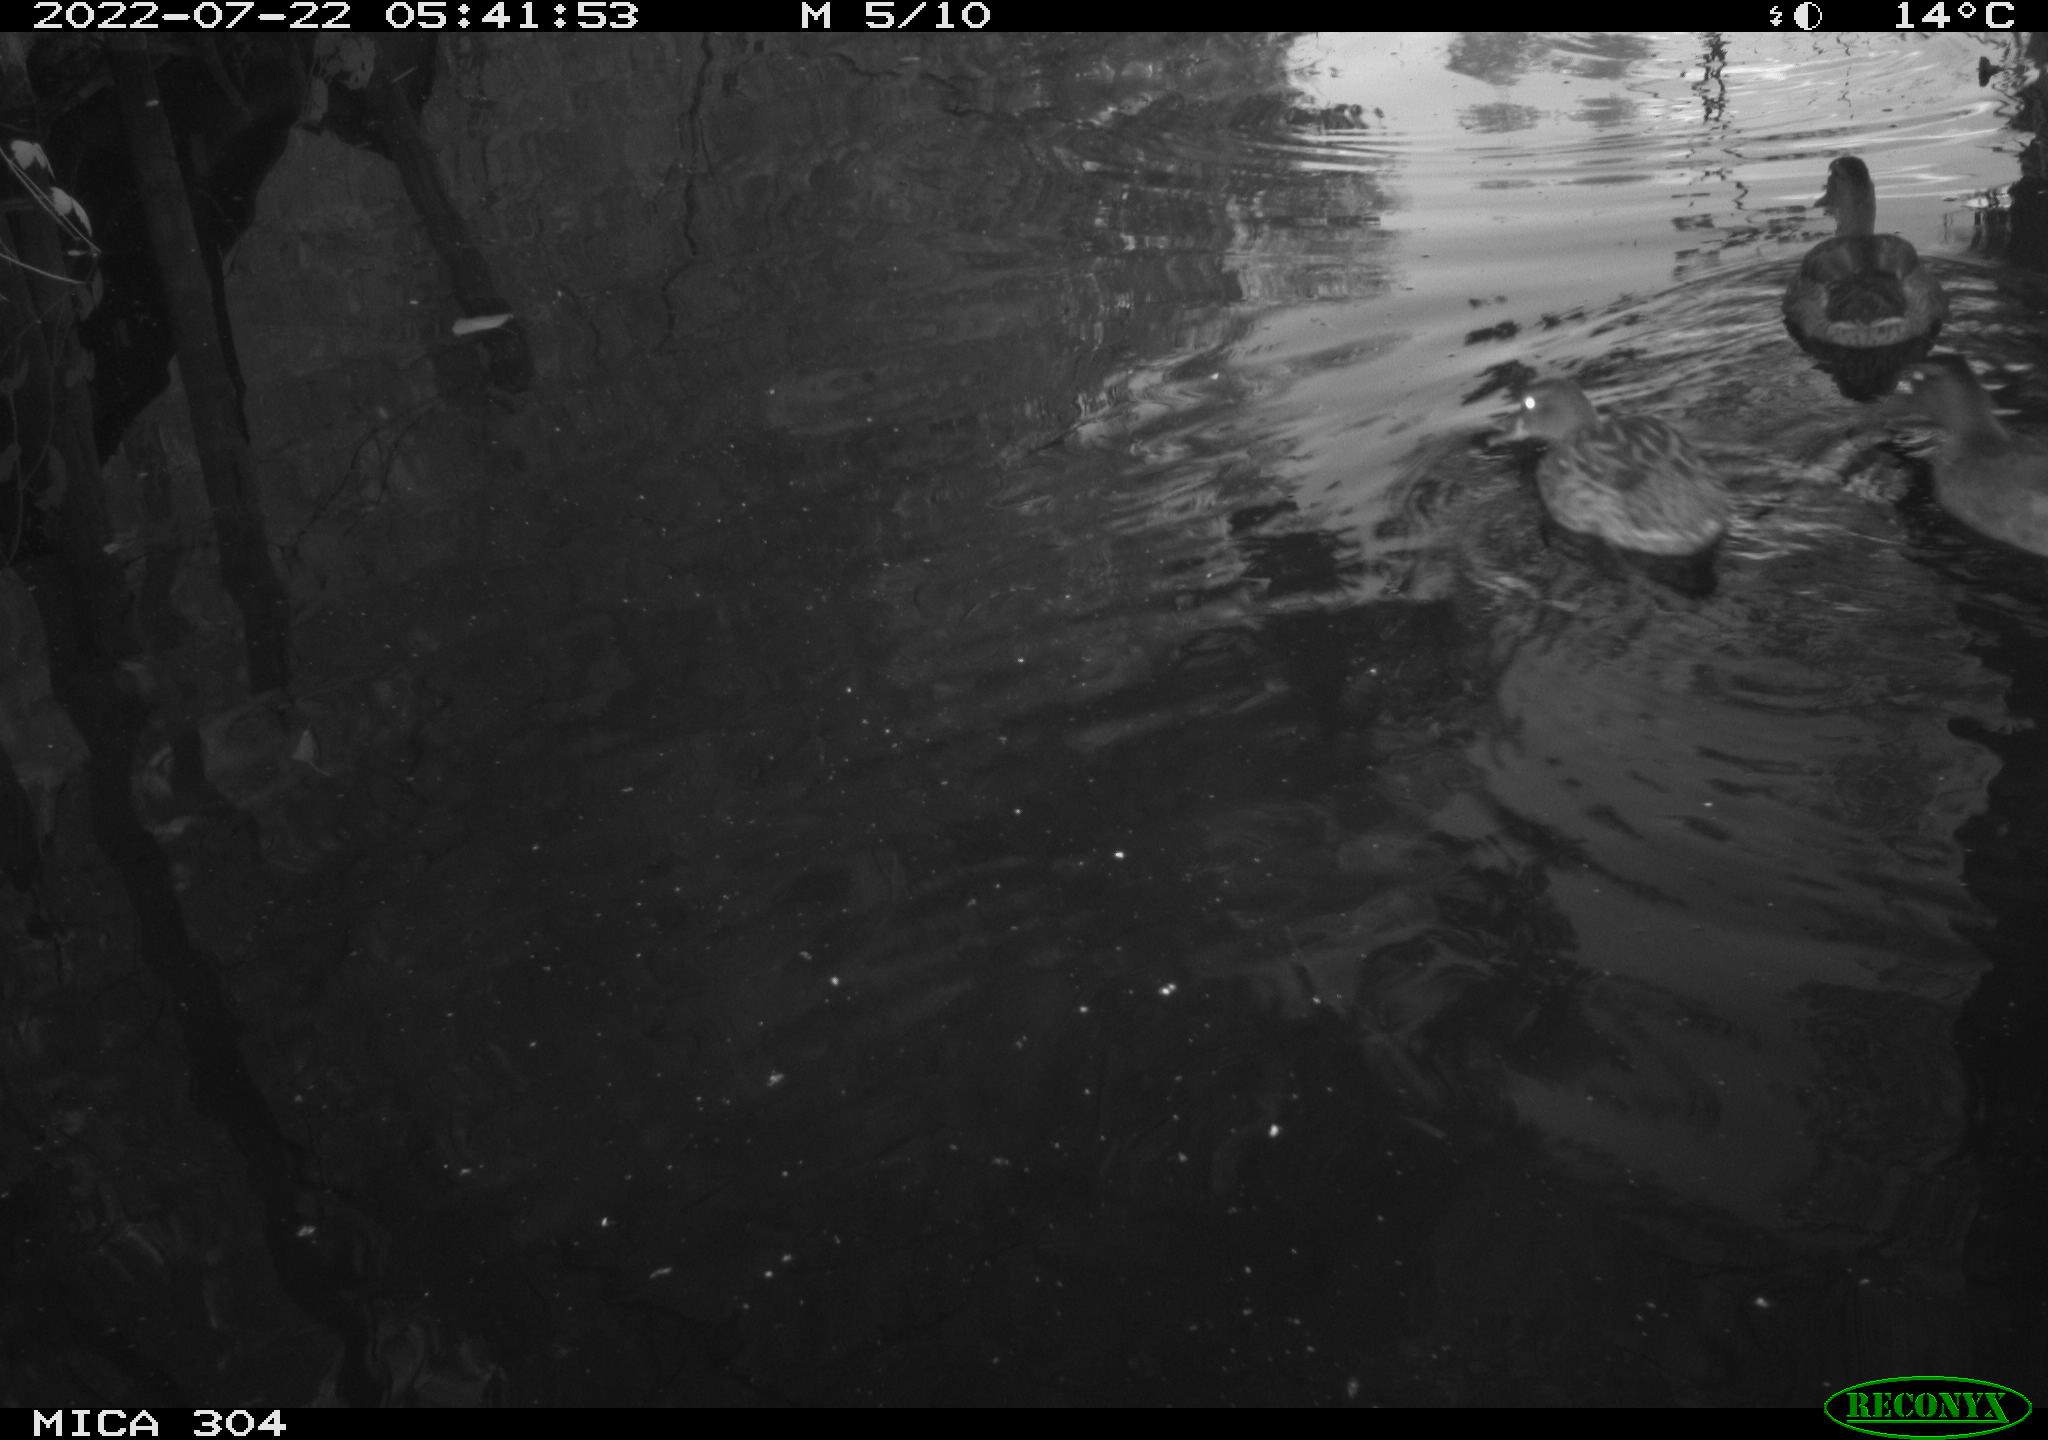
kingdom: Animalia
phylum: Chordata
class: Aves
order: Anseriformes
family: Anatidae
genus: Anas
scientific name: Anas platyrhynchos
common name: Mallard
